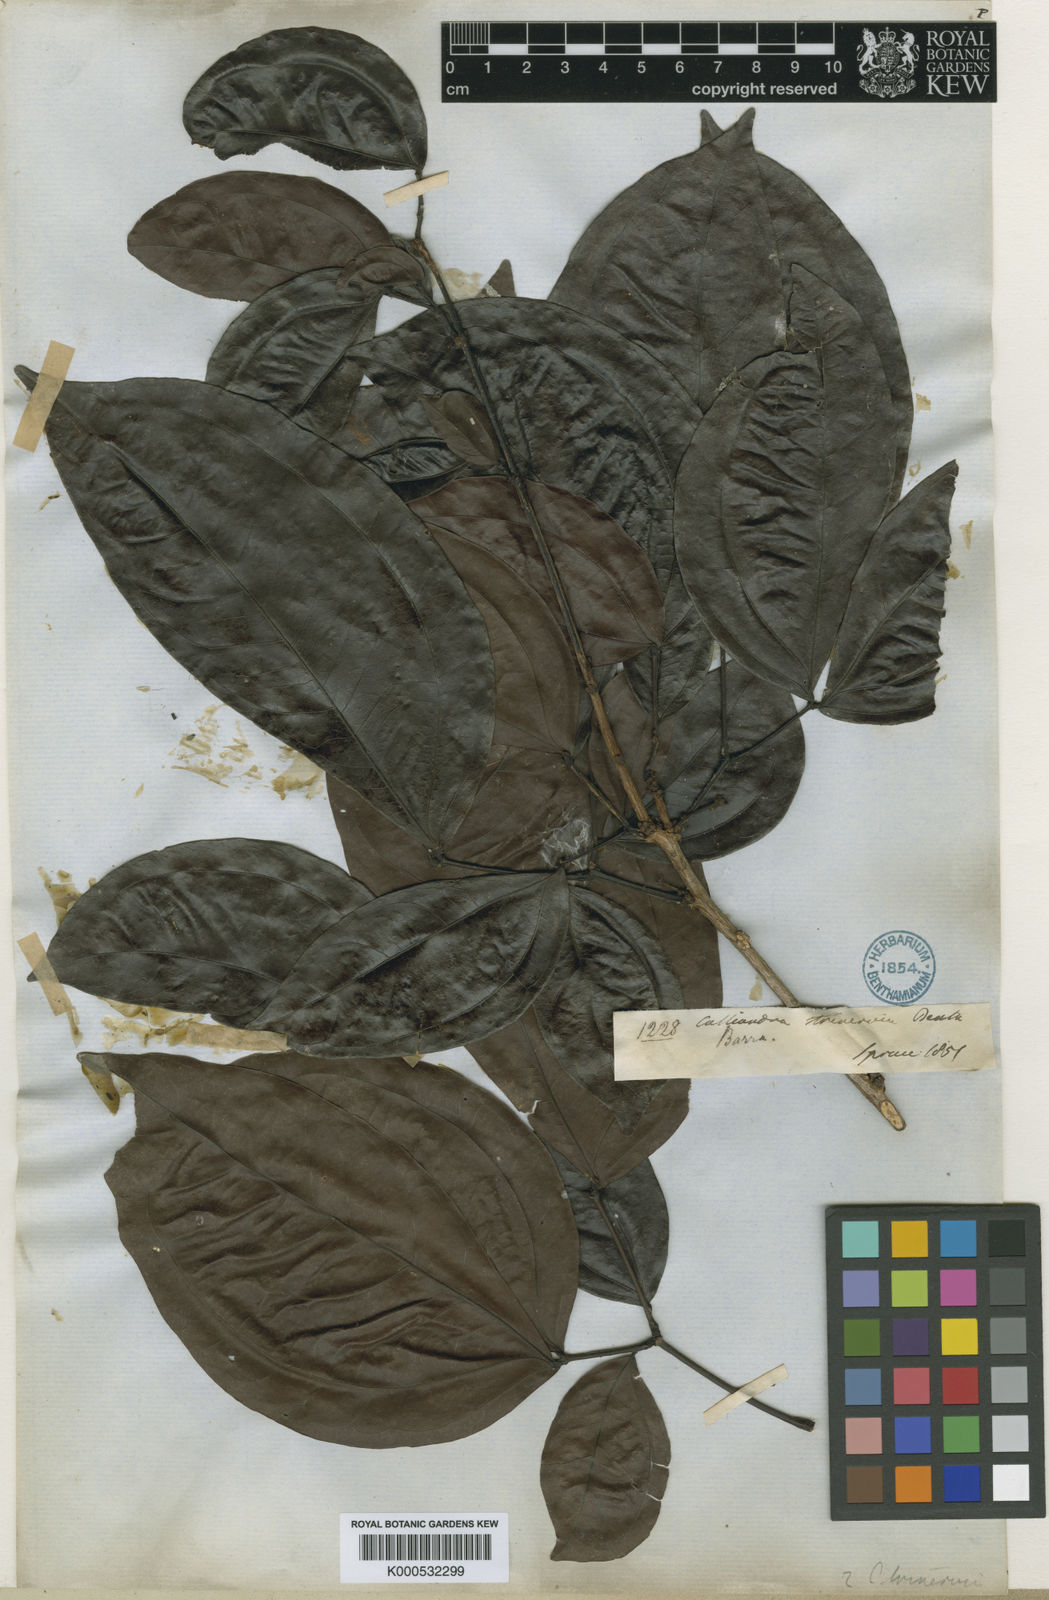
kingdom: Plantae
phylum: Tracheophyta
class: Magnoliopsida
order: Fabales
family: Fabaceae
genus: Calliandra
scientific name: Calliandra trinervia
